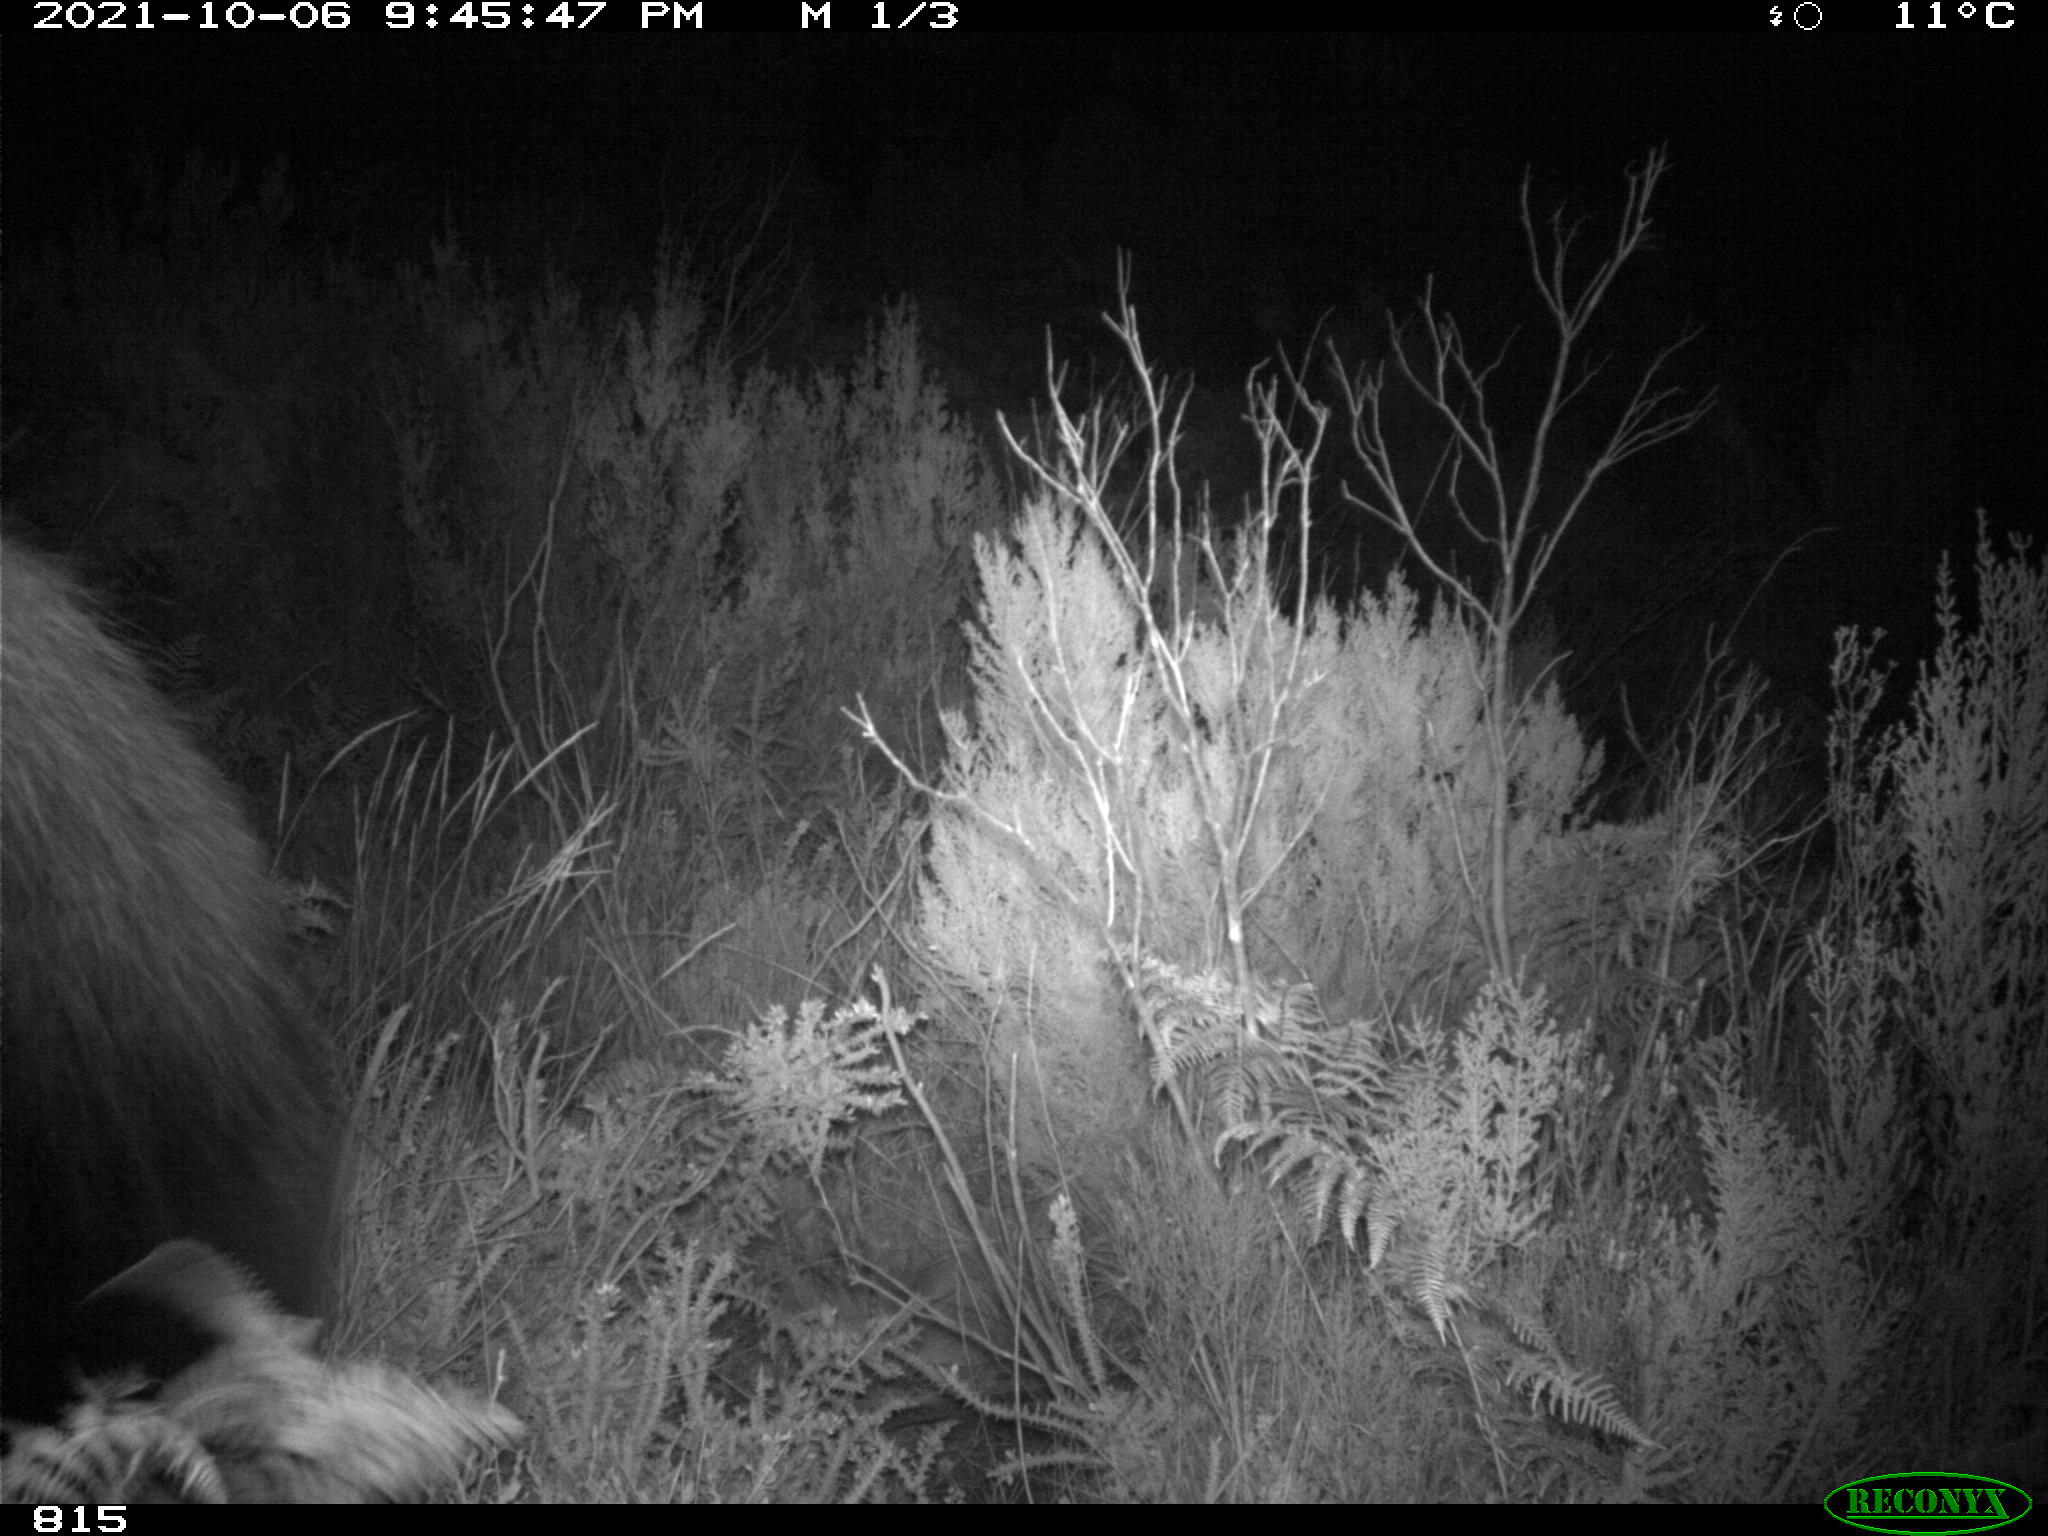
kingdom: Animalia
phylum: Chordata
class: Mammalia
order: Perissodactyla
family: Equidae
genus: Equus
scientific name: Equus caballus
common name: Horse
